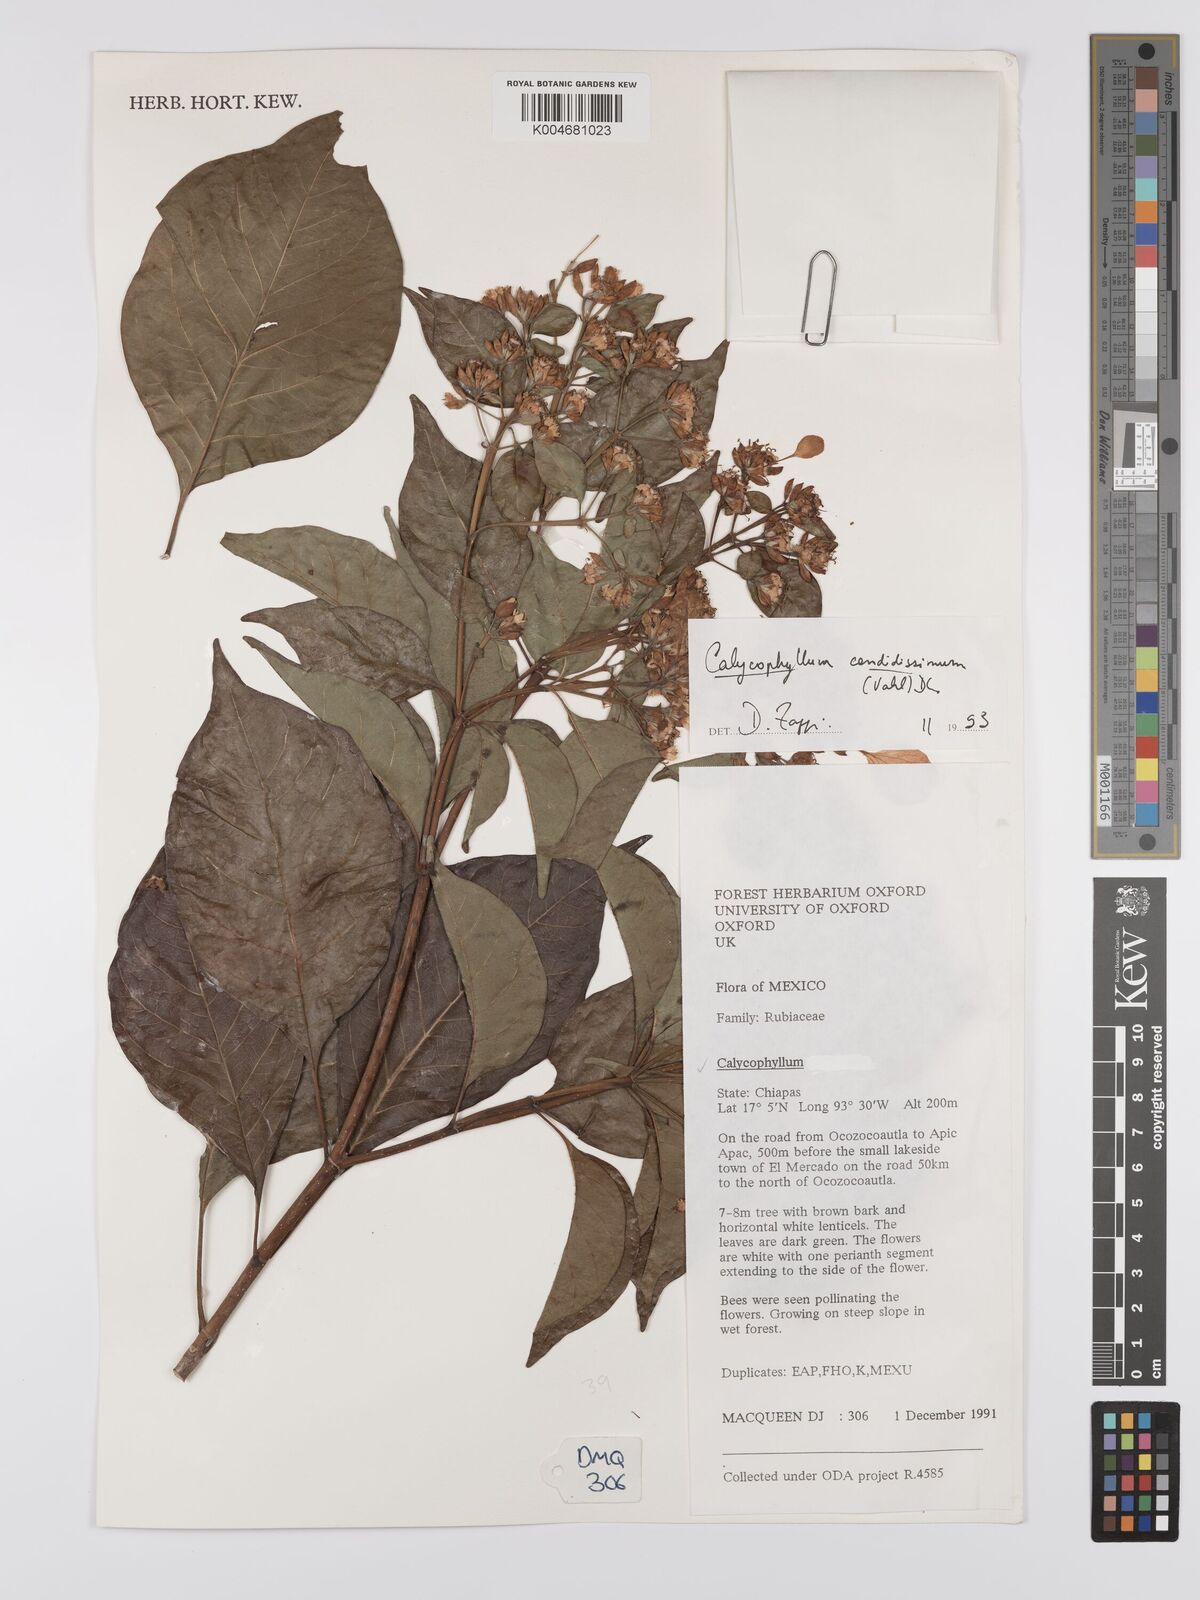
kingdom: Plantae
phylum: Tracheophyta
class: Magnoliopsida
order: Gentianales
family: Rubiaceae
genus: Calycophyllum
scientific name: Calycophyllum candidissimum
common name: Dagame
